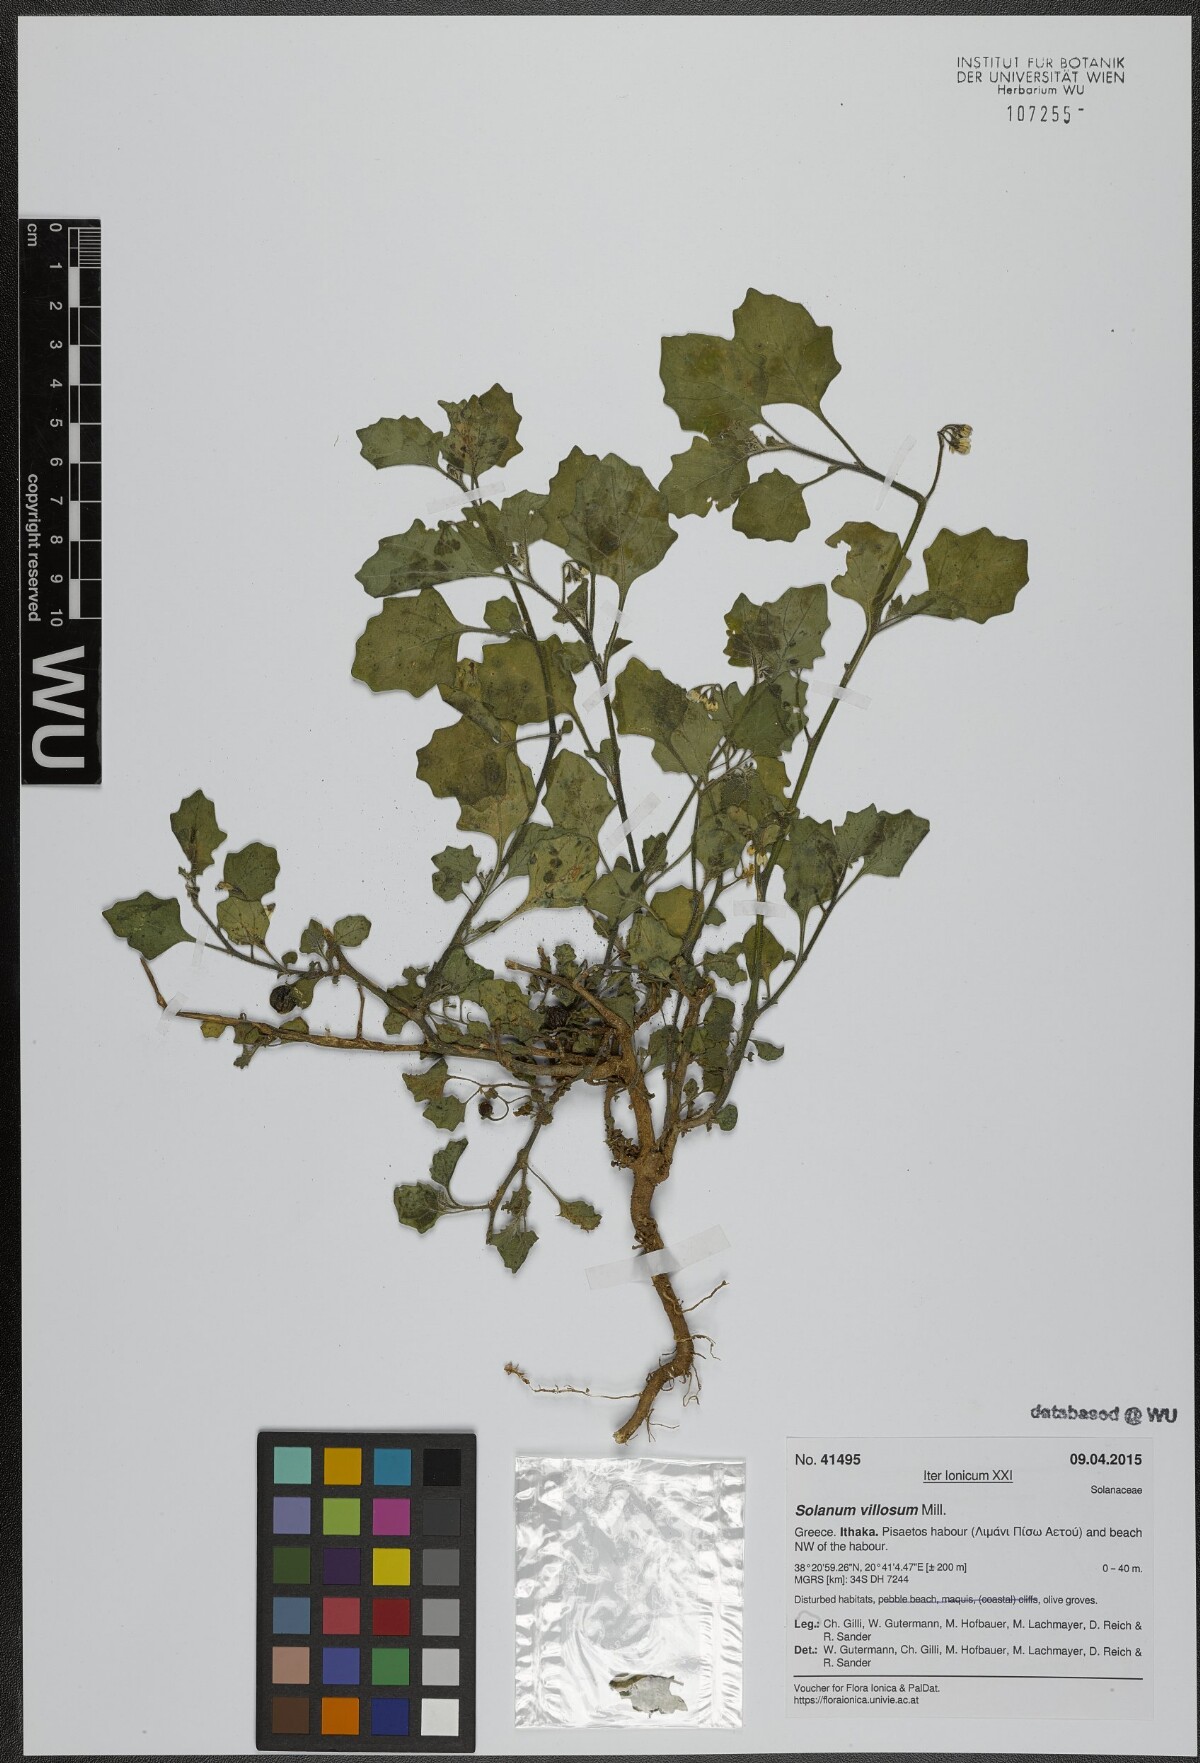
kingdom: Plantae
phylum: Tracheophyta
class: Magnoliopsida
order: Solanales
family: Solanaceae
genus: Solanum
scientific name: Solanum villosum
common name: Red nightshade
